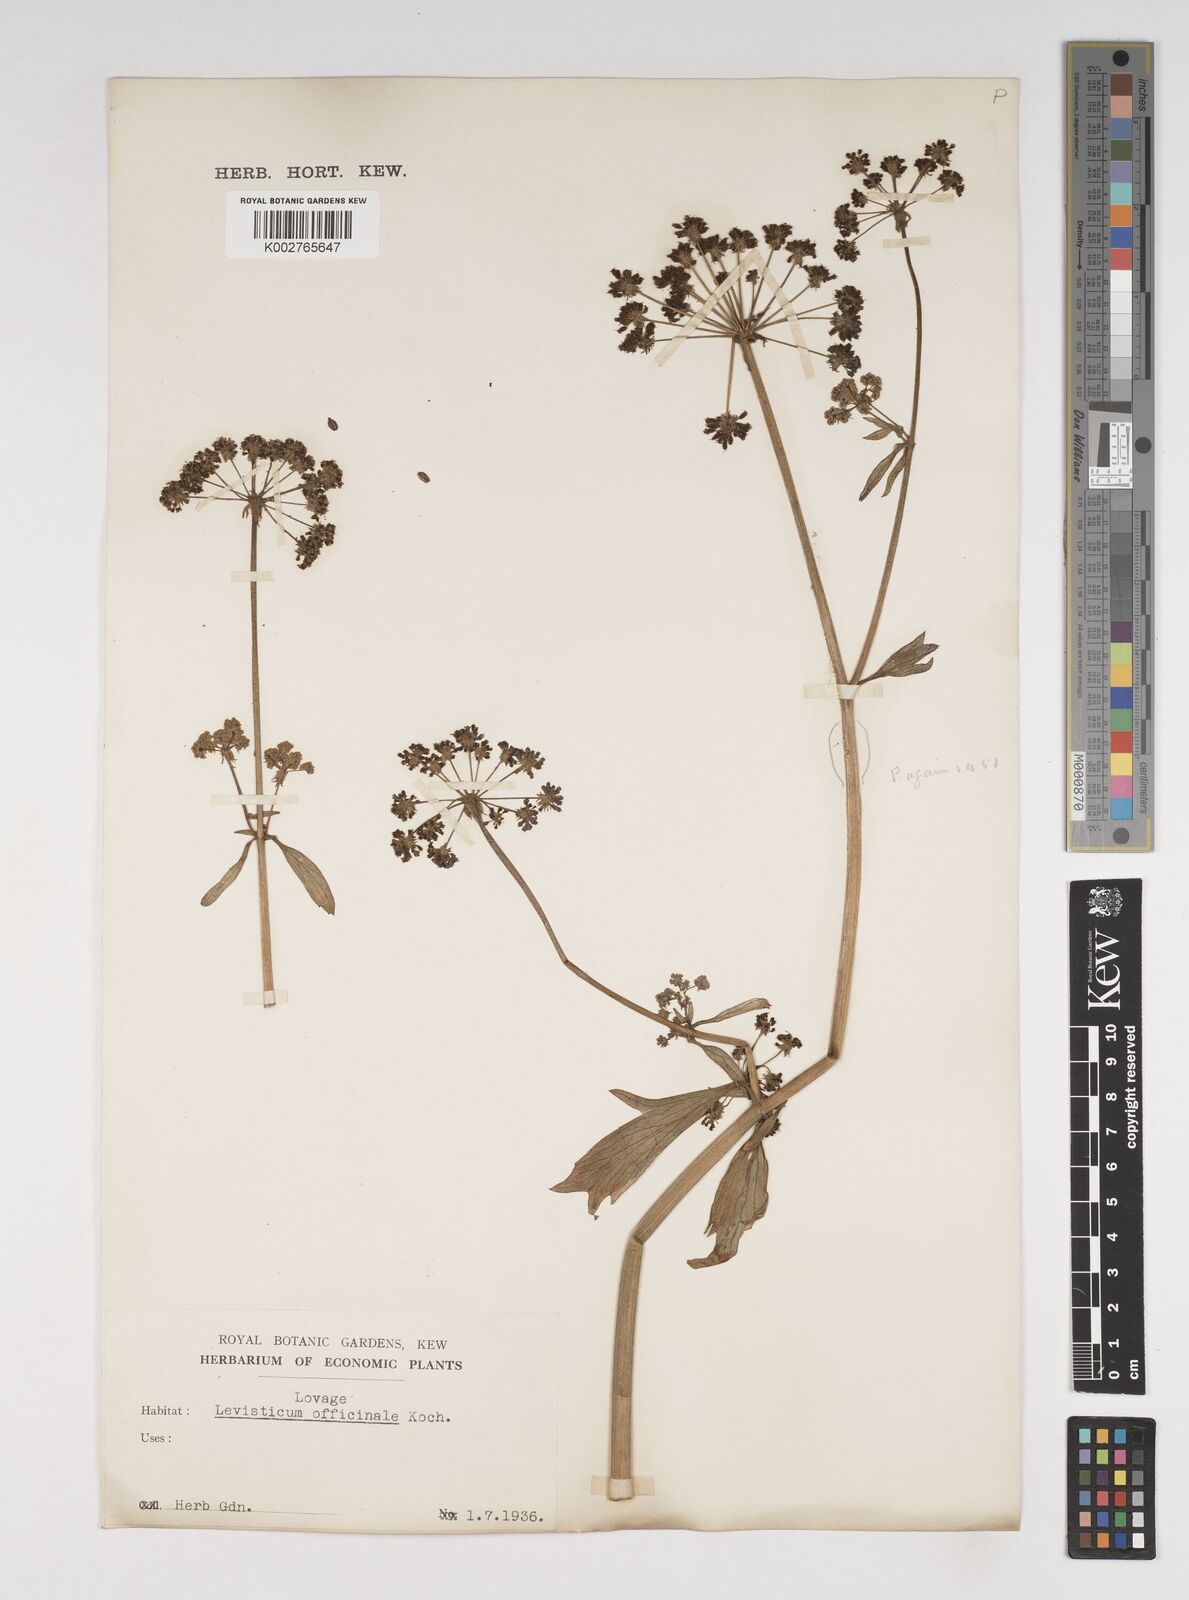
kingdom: Plantae
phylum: Tracheophyta
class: Magnoliopsida
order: Apiales
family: Apiaceae
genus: Levisticum
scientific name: Levisticum officinale
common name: Lovage
